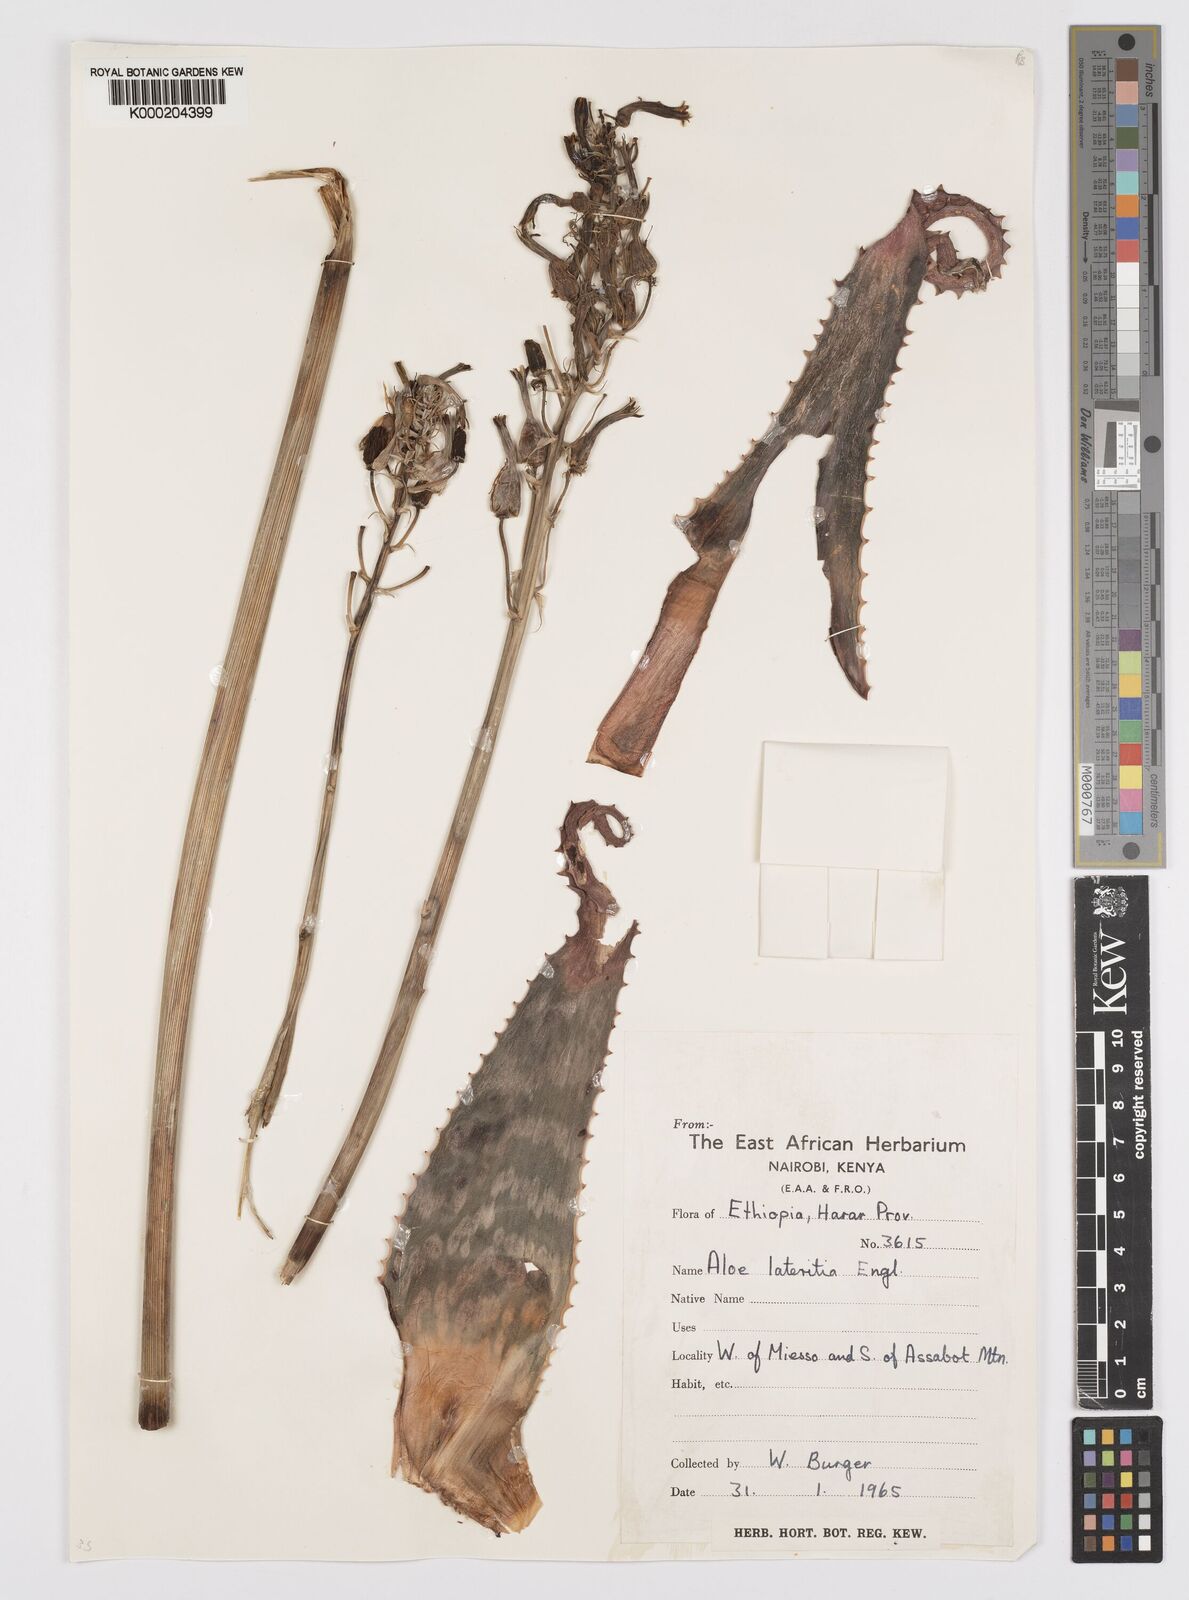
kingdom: Plantae
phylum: Tracheophyta
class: Liliopsida
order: Asparagales
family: Asphodelaceae
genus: Aloe
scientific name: Aloe macrocarpa
